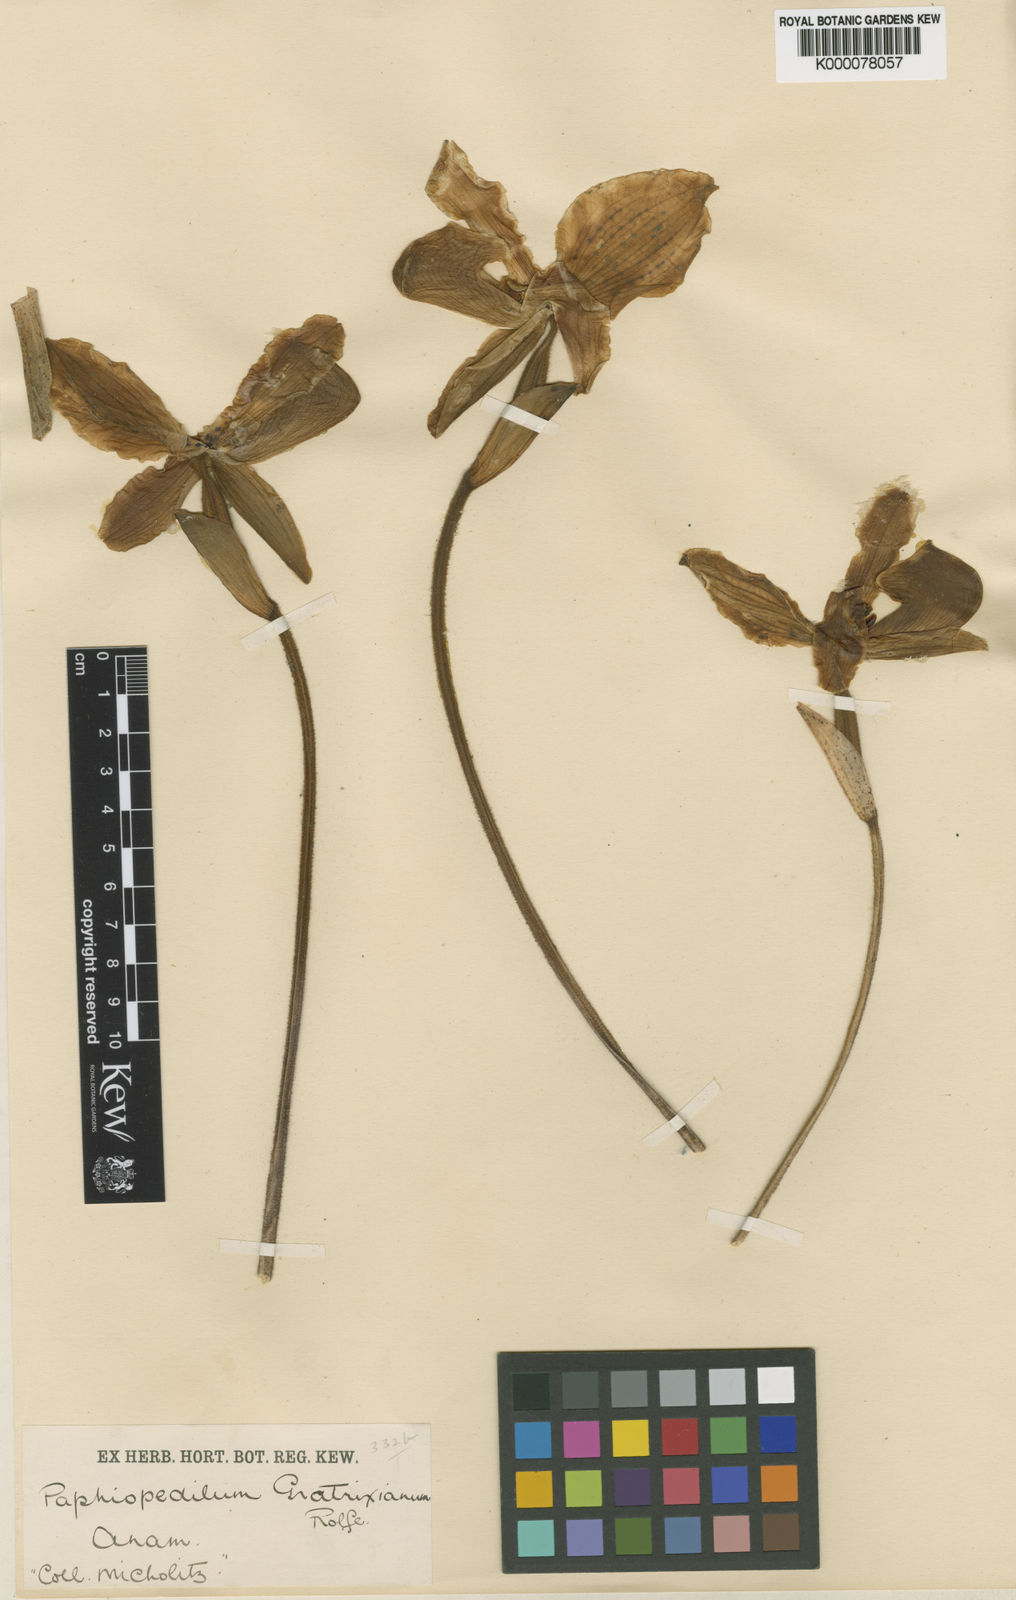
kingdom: Plantae
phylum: Tracheophyta
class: Liliopsida
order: Asparagales
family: Orchidaceae
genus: Paphiopedilum
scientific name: Paphiopedilum gratrixianum
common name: Gratix's paphiopedilum
